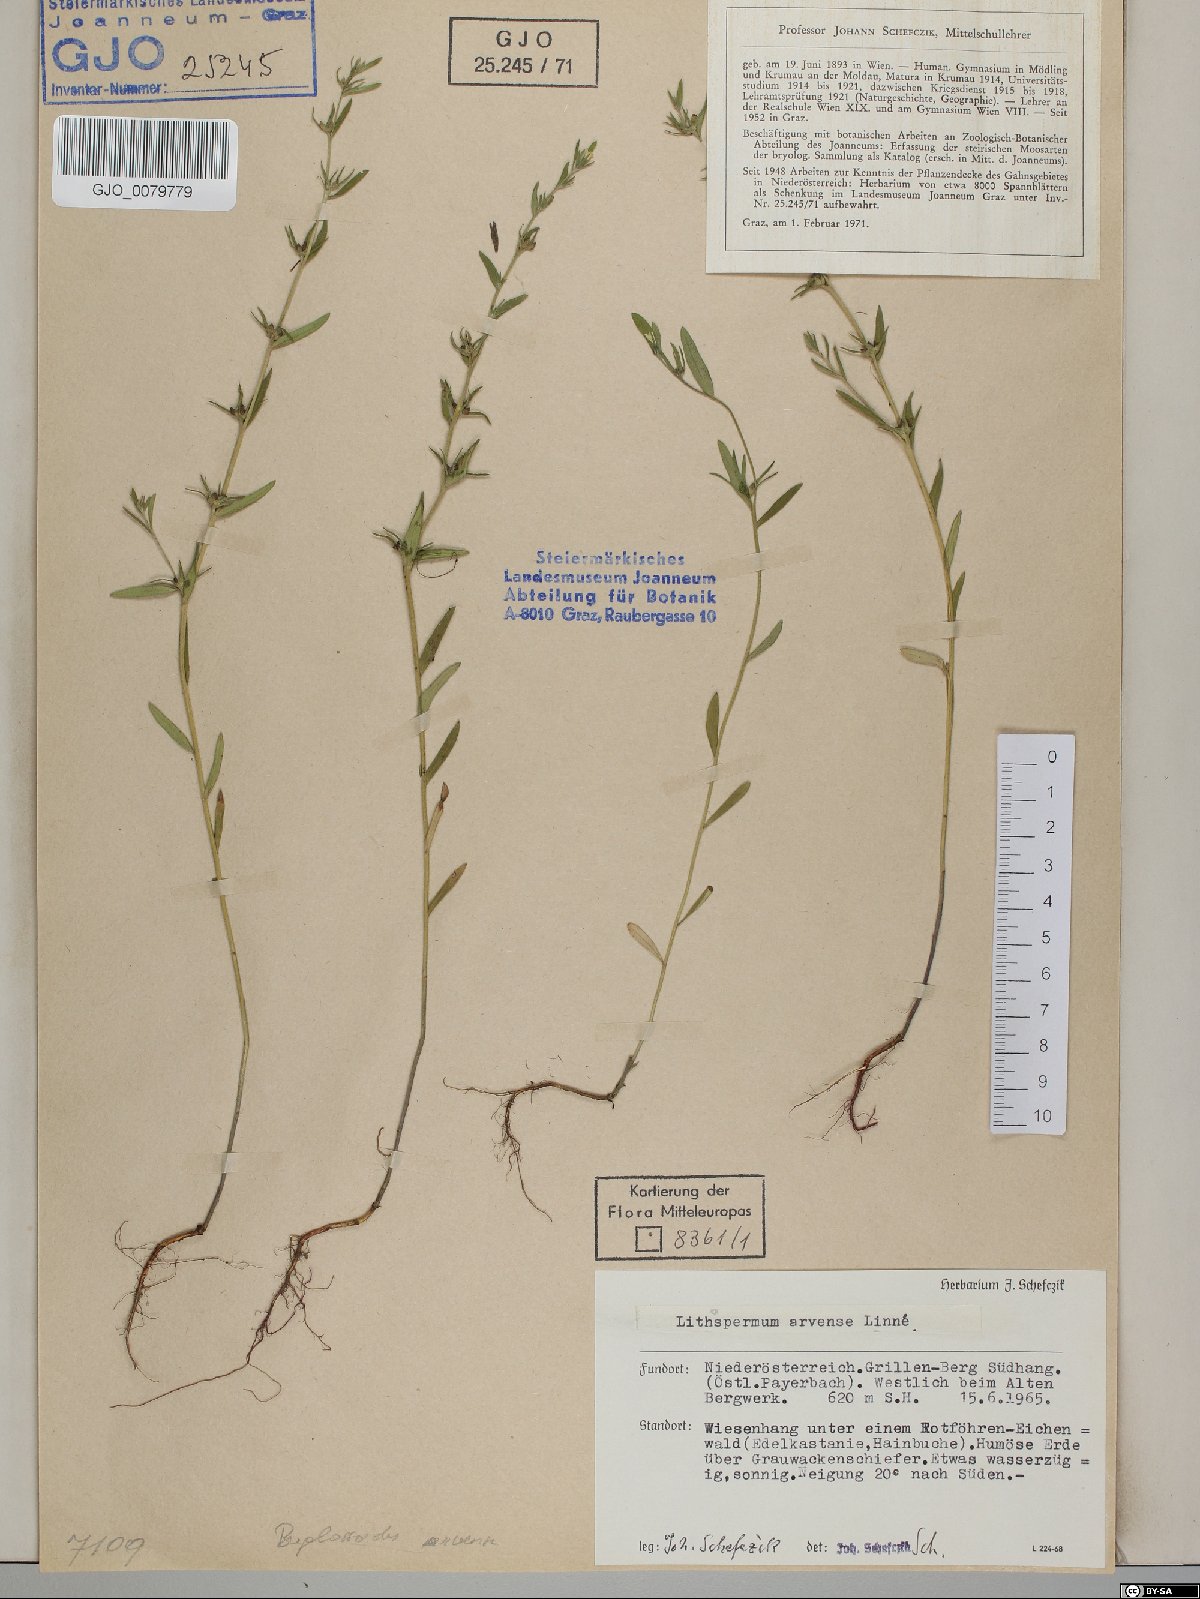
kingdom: Plantae
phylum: Tracheophyta
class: Magnoliopsida
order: Boraginales
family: Boraginaceae
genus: Buglossoides
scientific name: Buglossoides arvensis
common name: Corn gromwell
